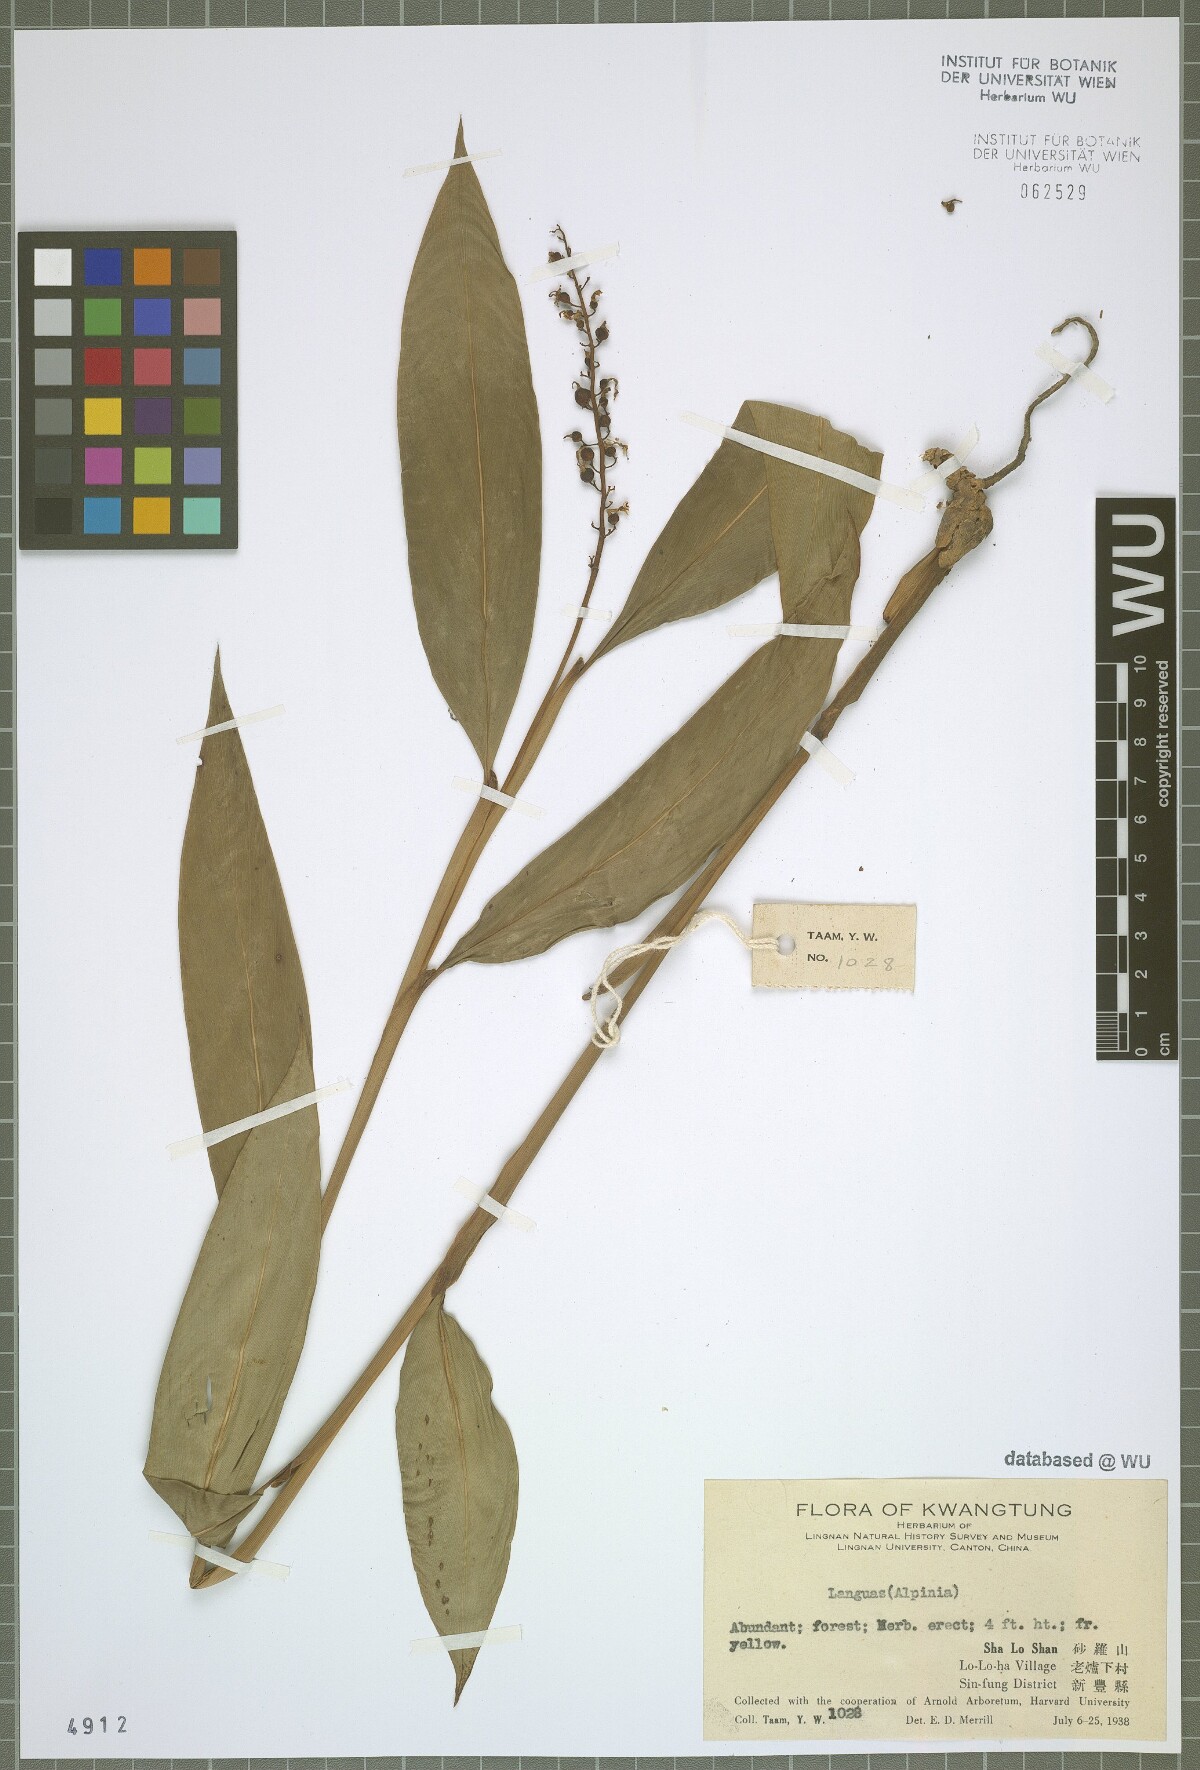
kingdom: Plantae
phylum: Tracheophyta
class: Liliopsida
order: Zingiberales
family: Zingiberaceae
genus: Alpinia
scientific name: Alpinia
